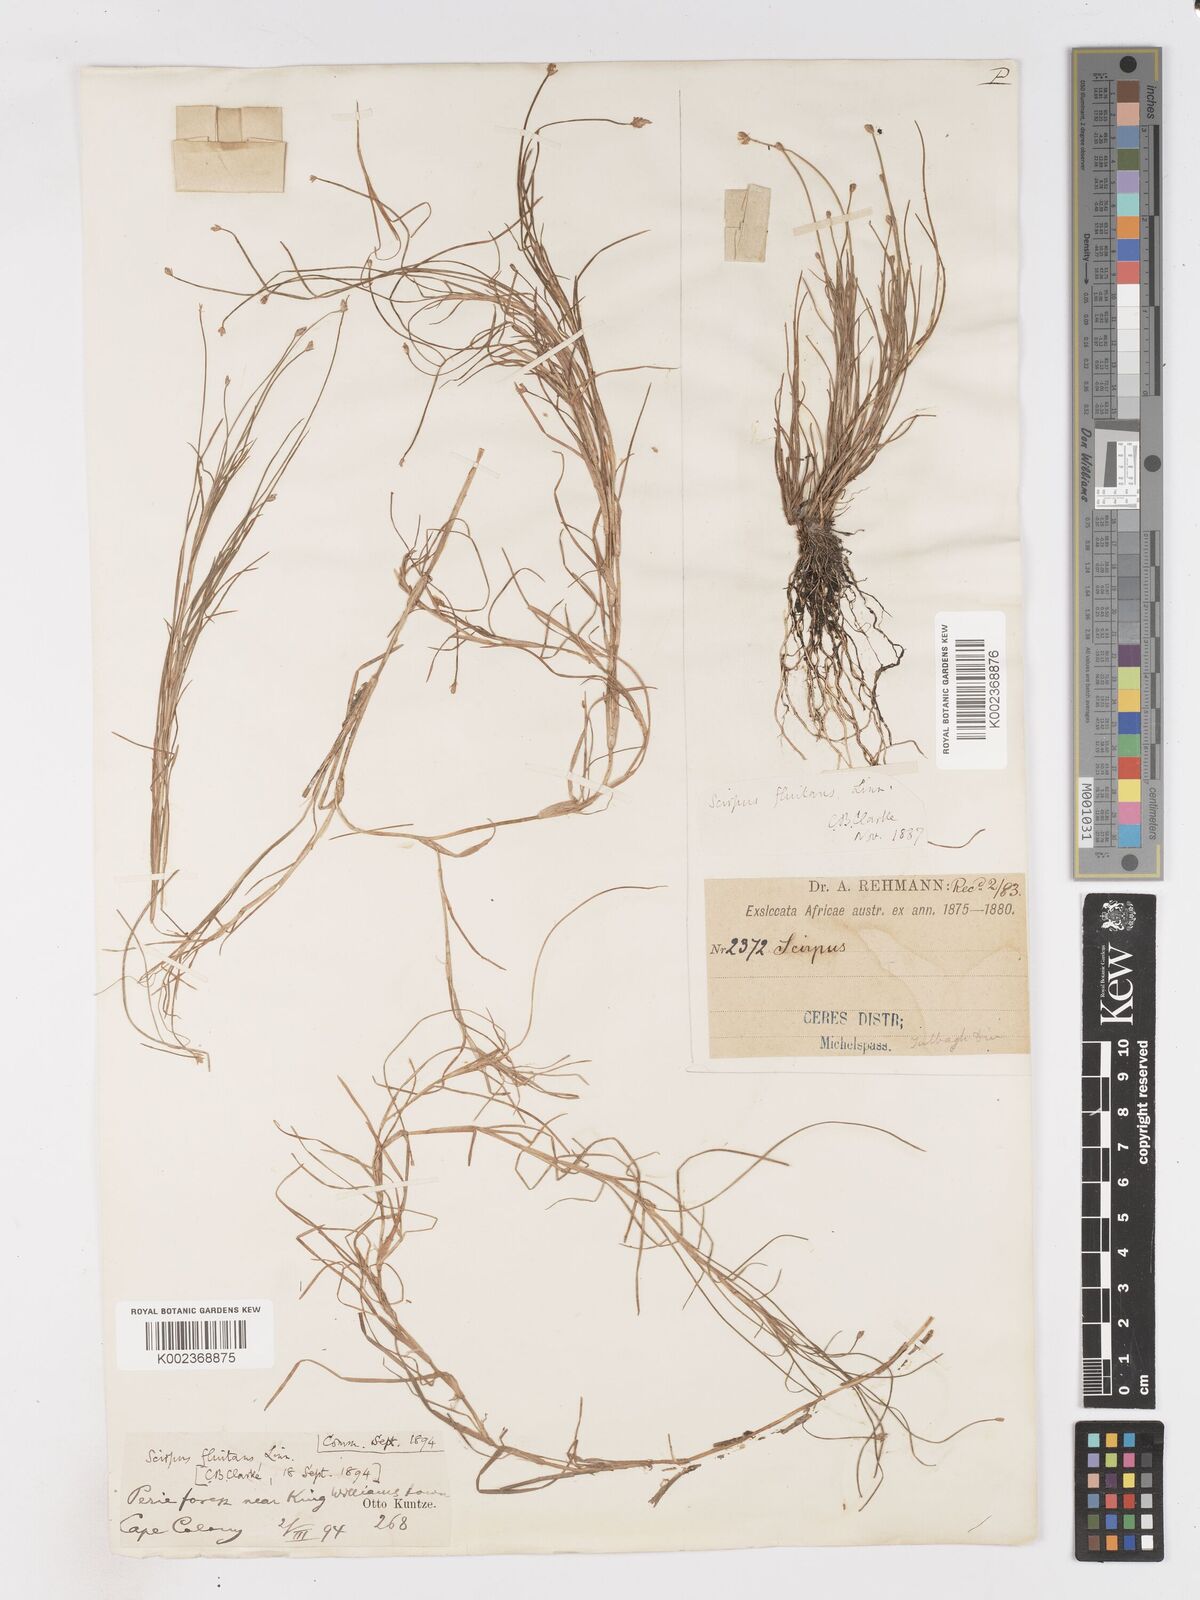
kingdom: Plantae
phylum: Tracheophyta
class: Liliopsida
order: Poales
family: Cyperaceae
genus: Isolepis
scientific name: Isolepis fluitans
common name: Floating club-rush
